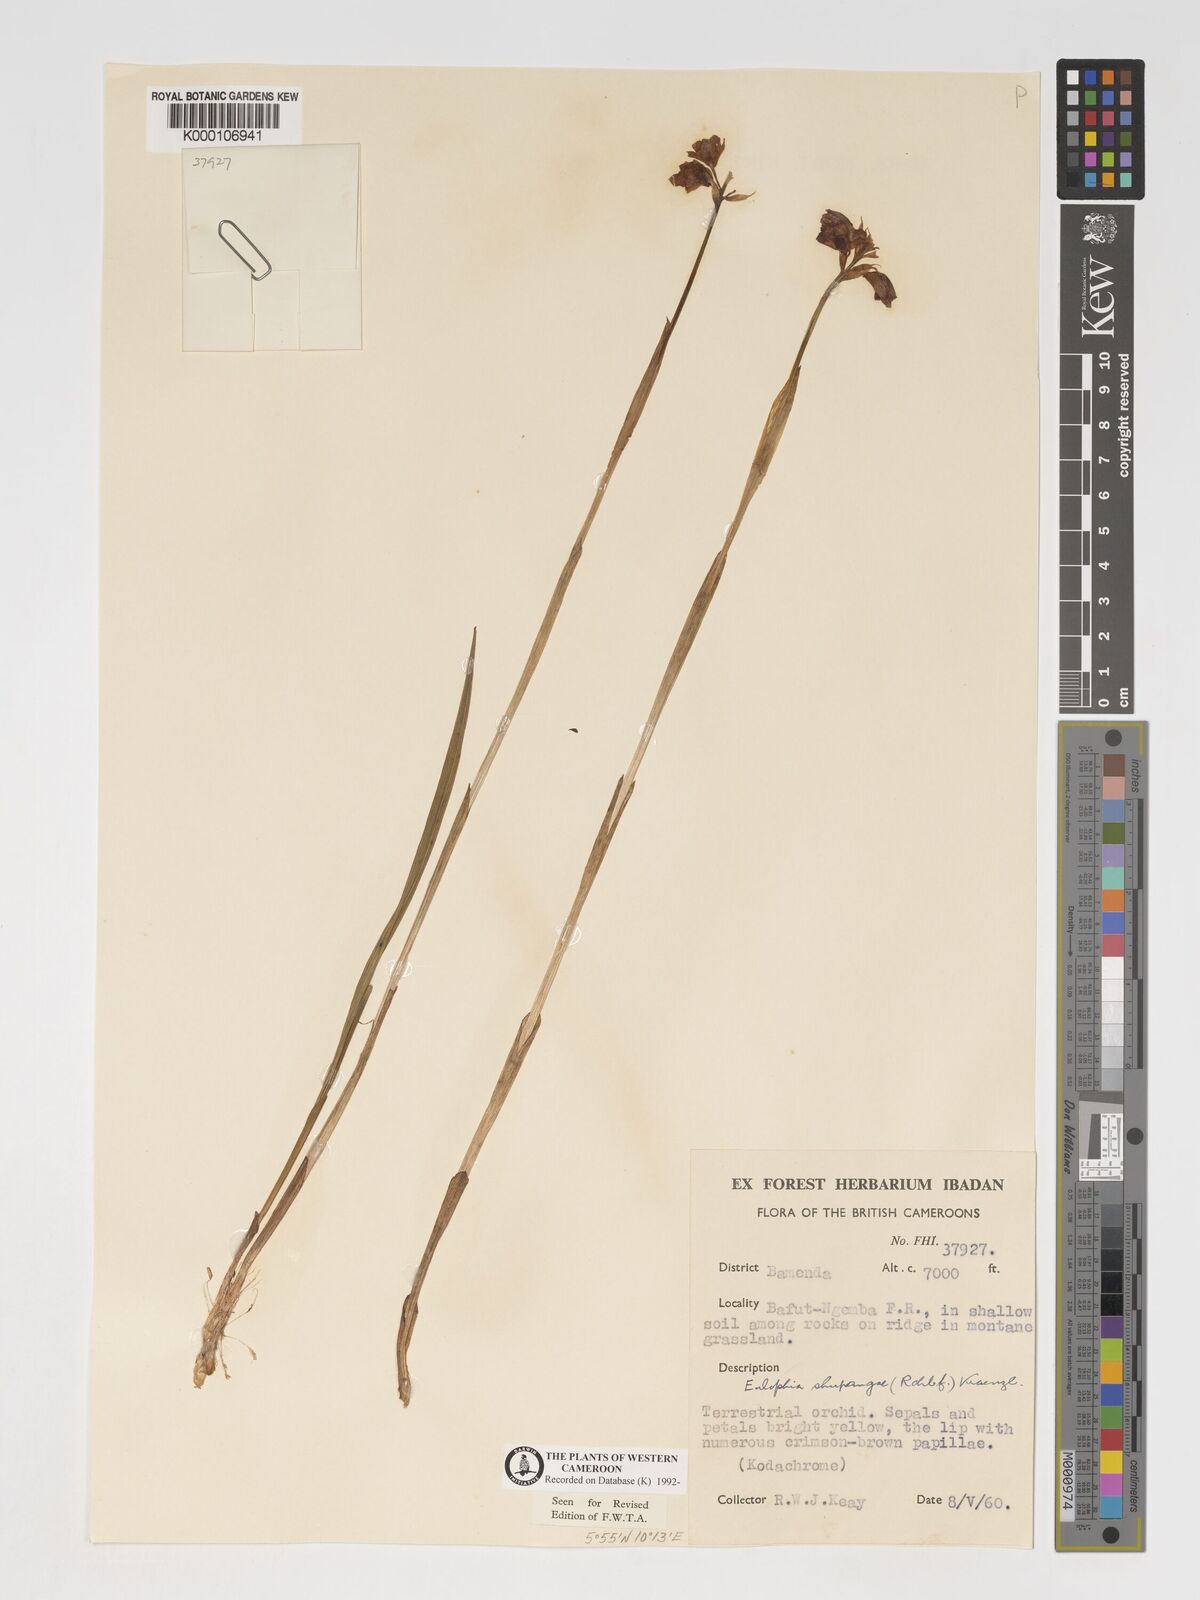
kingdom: Plantae
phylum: Tracheophyta
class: Liliopsida
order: Asparagales
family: Orchidaceae
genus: Eulophia
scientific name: Eulophia odontoglossa
